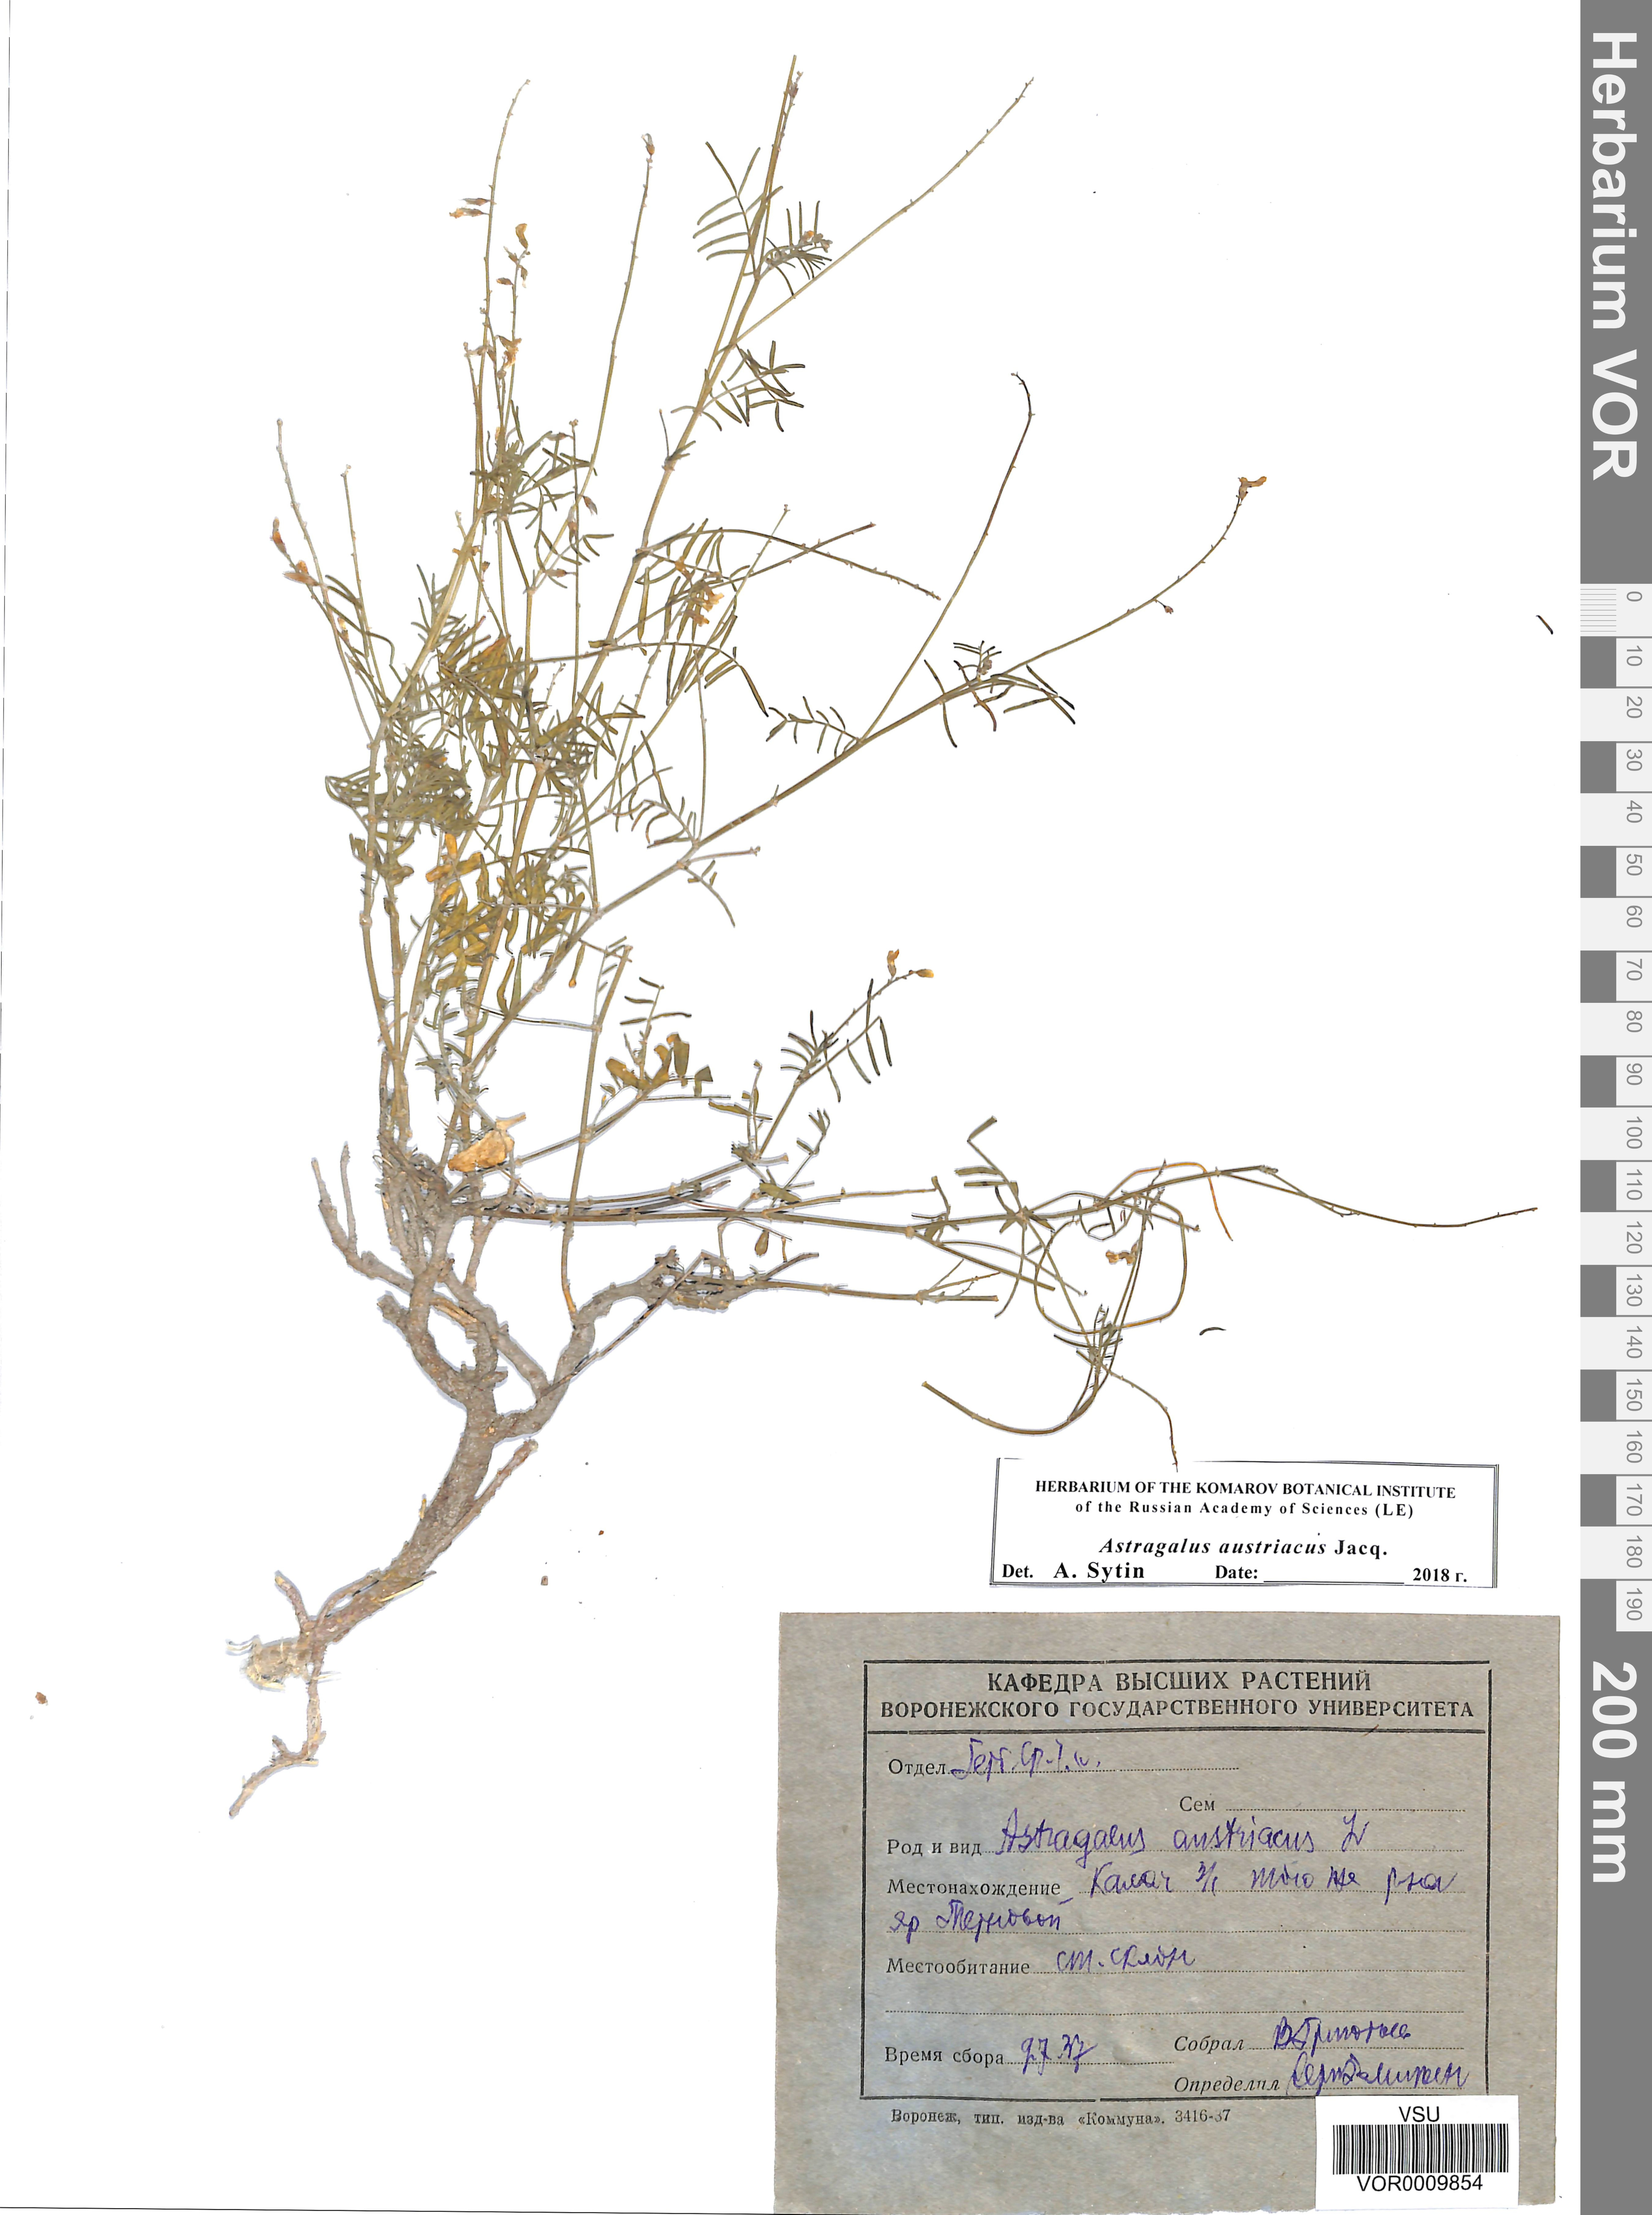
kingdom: Plantae
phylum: Tracheophyta
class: Magnoliopsida
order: Fabales
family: Fabaceae
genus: Astragalus
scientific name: Astragalus austriacus
